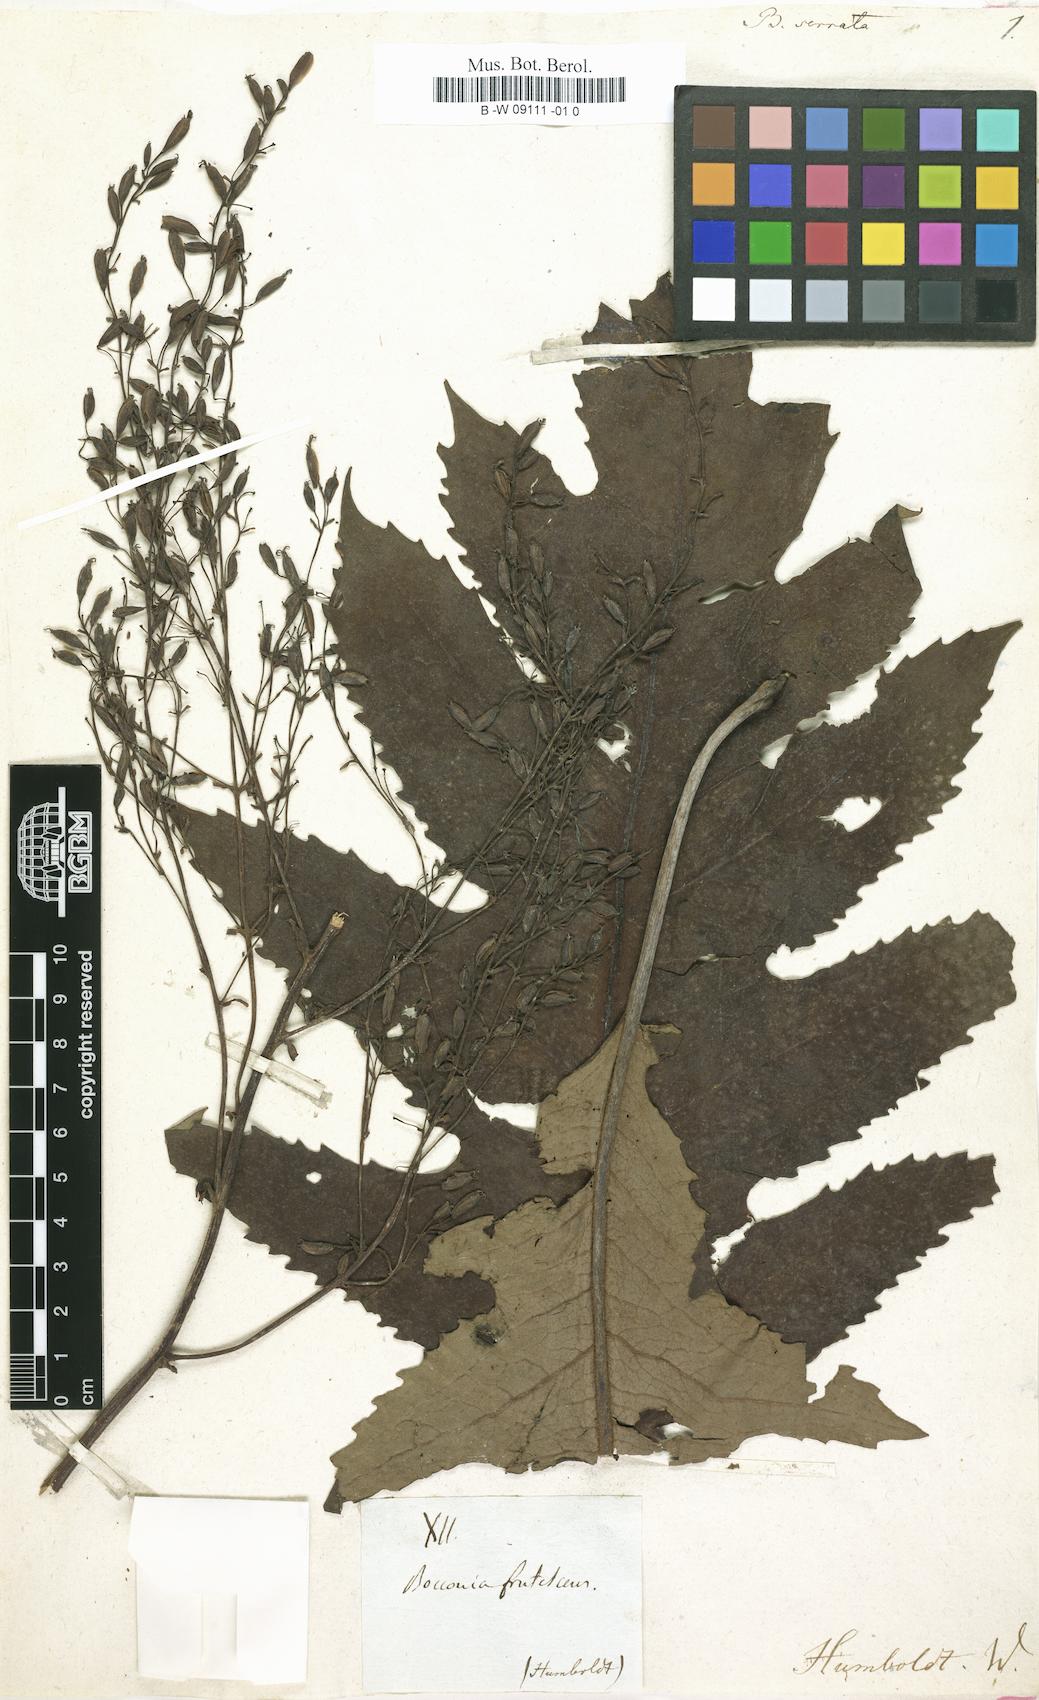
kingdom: Plantae
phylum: Tracheophyta
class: Magnoliopsida
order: Ranunculales
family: Papaveraceae
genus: Bocconia
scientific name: Bocconia
